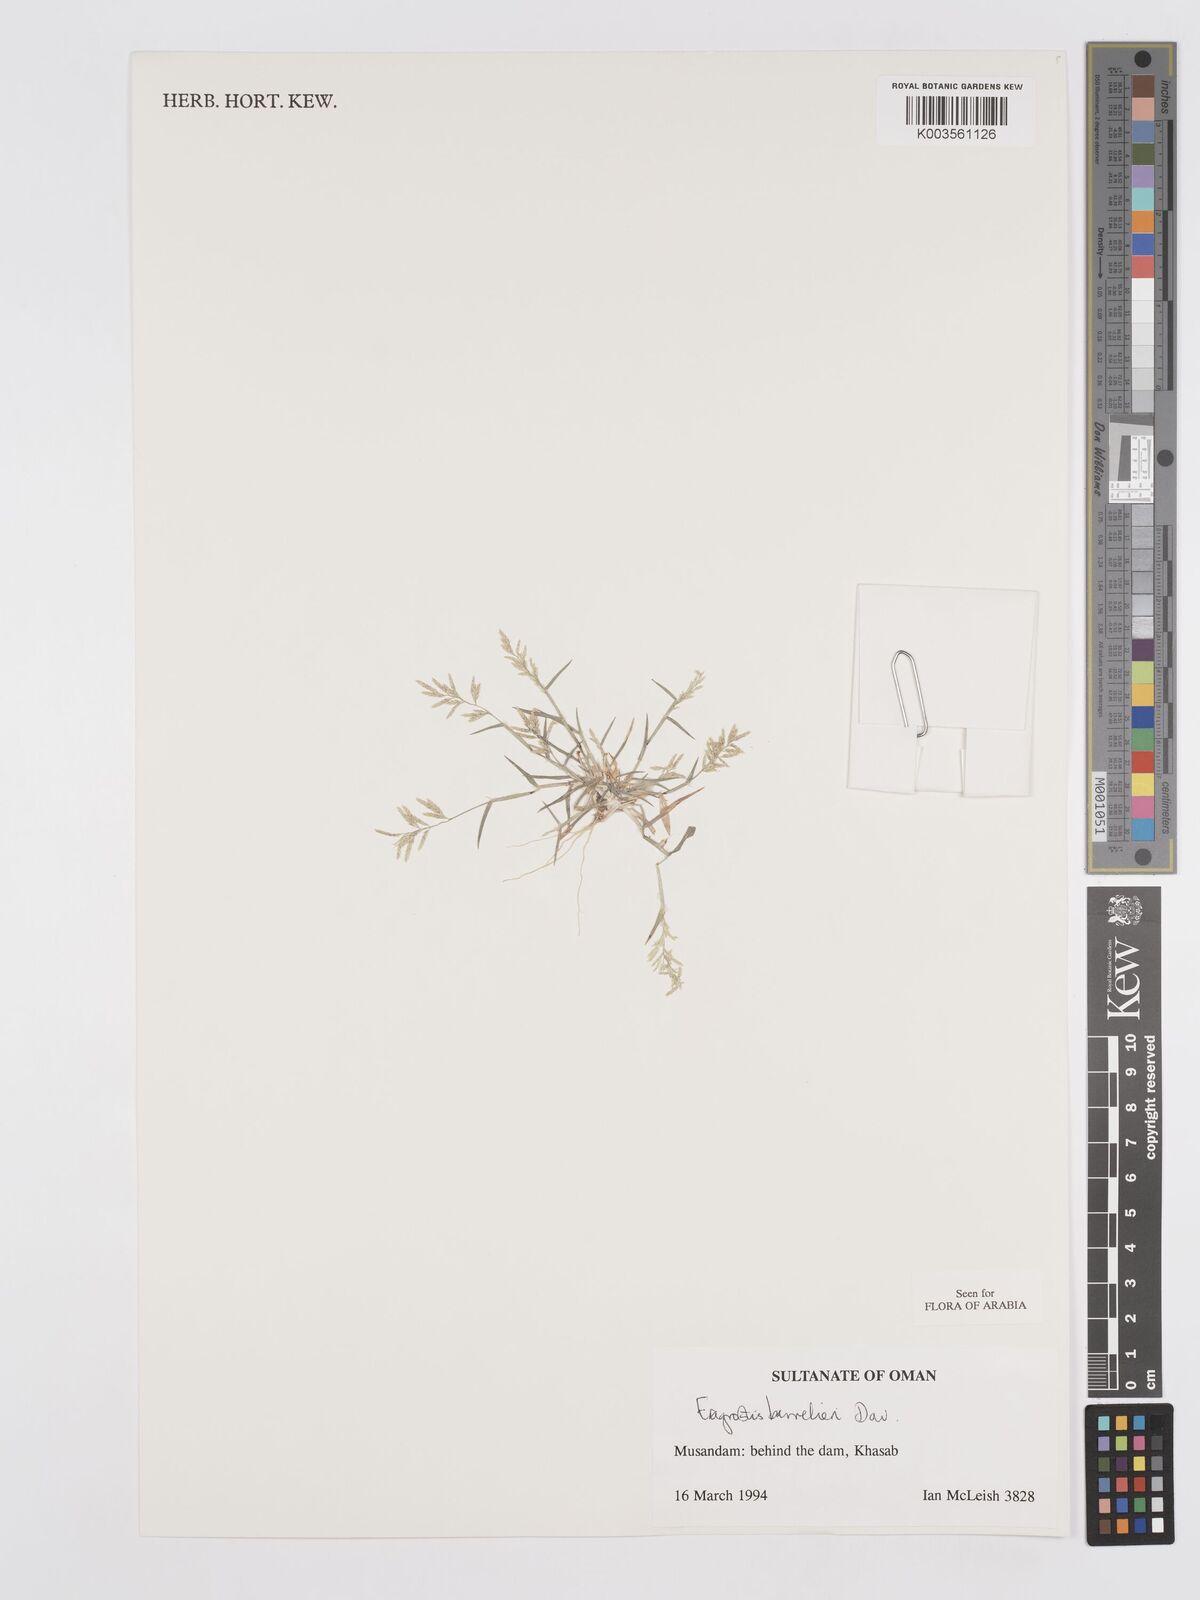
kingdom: Plantae
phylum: Tracheophyta
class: Liliopsida
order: Poales
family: Poaceae
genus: Eragrostis
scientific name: Eragrostis barrelieri
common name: Mediterranean lovegrass
